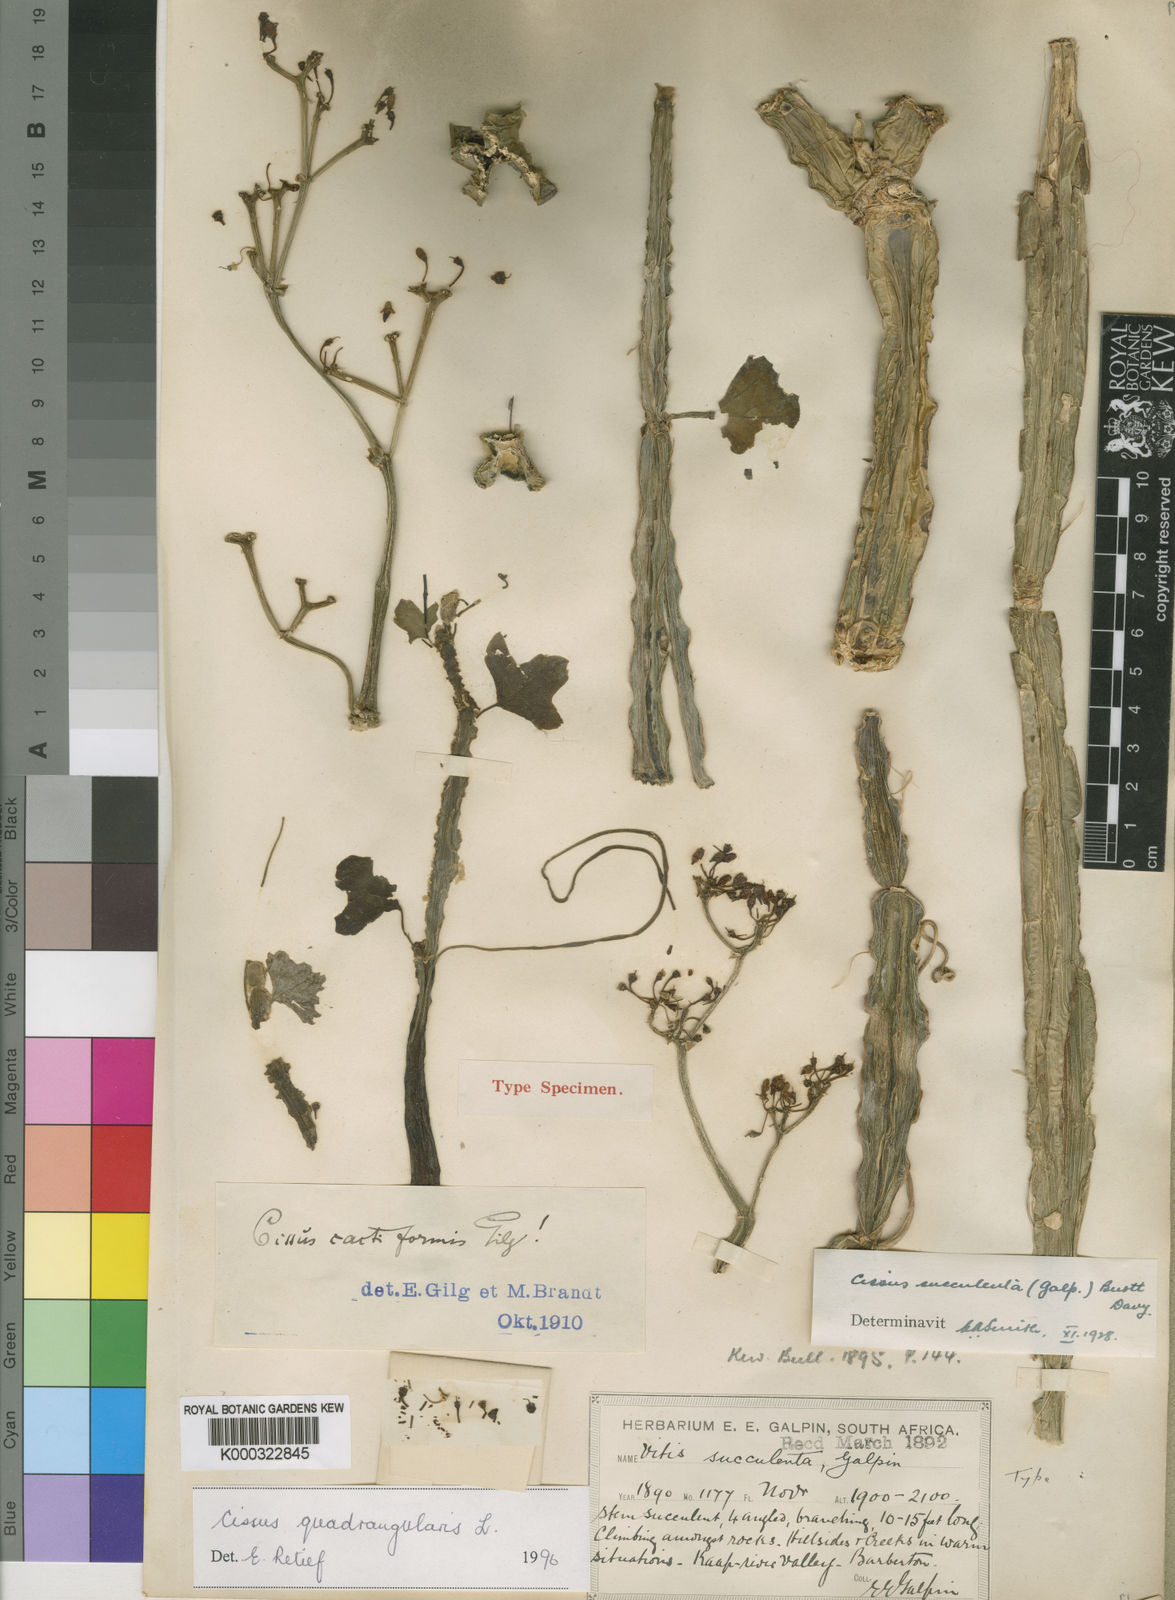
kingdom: Plantae
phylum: Tracheophyta
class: Magnoliopsida
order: Vitales
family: Vitaceae
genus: Cissus
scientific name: Cissus succulenta
